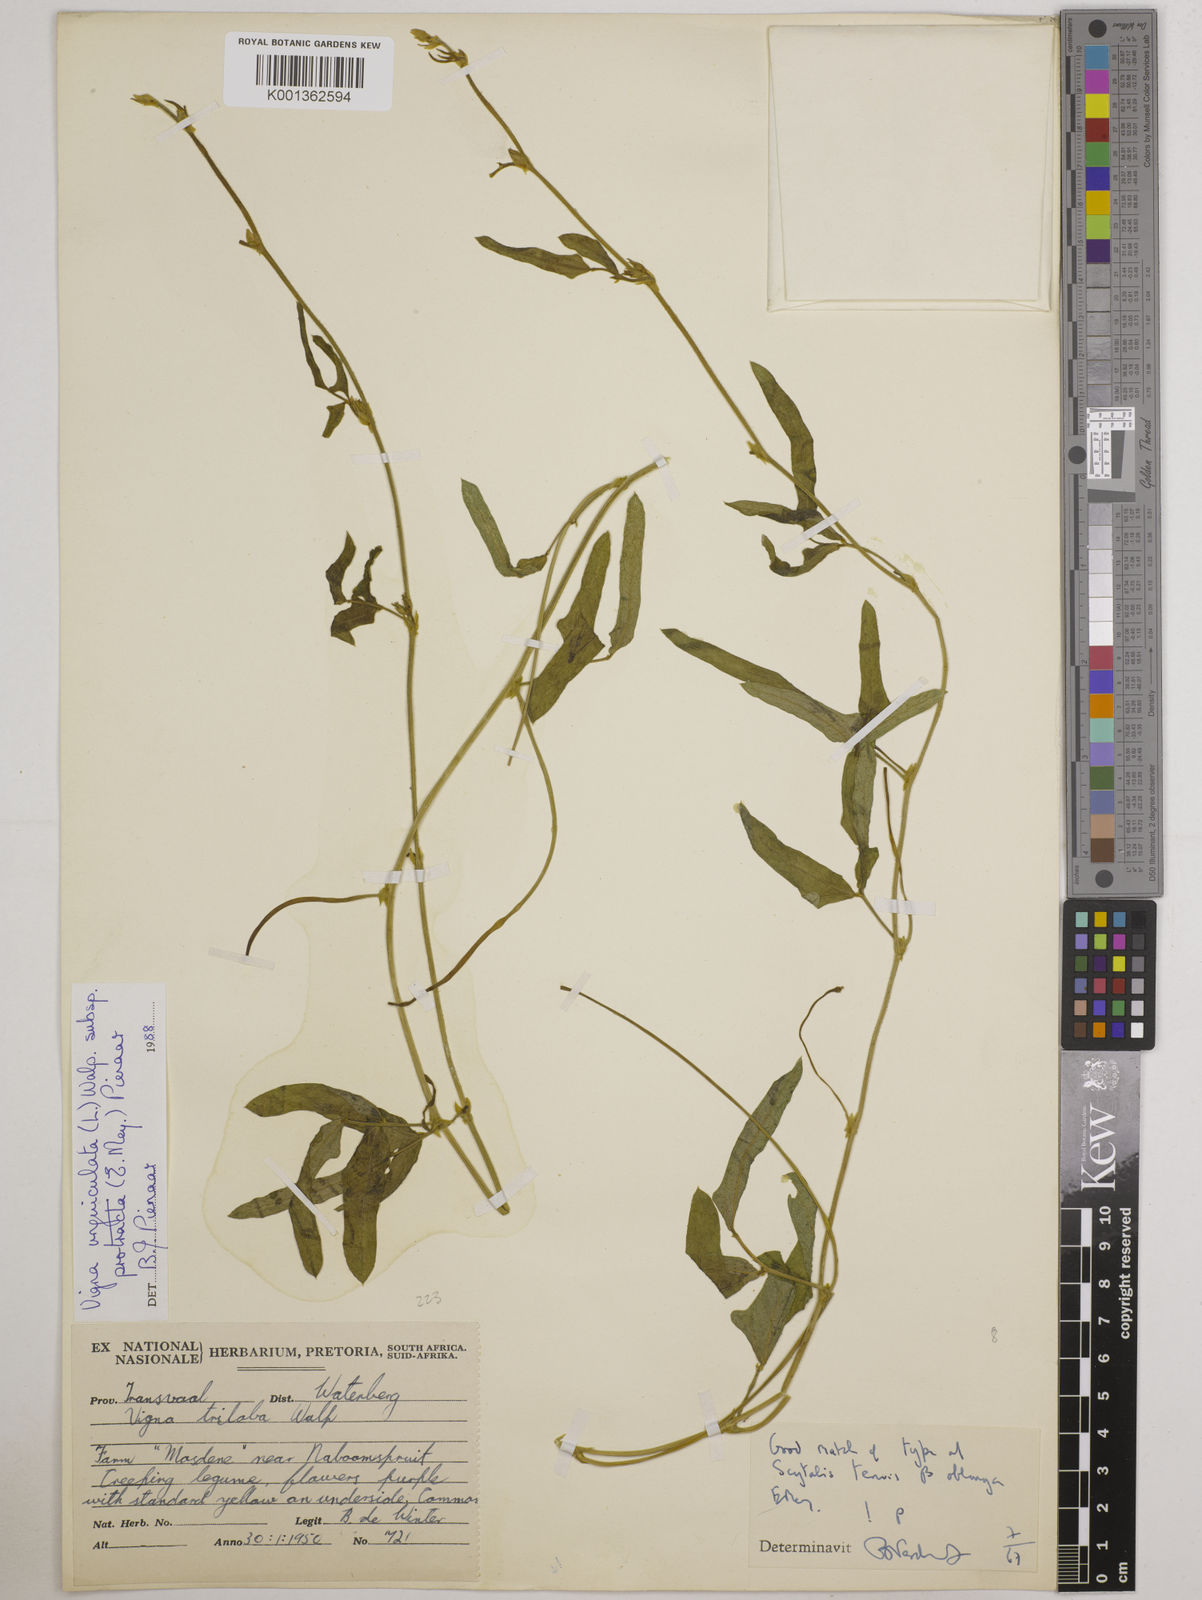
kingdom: Plantae
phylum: Tracheophyta
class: Magnoliopsida
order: Fabales
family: Fabaceae
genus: Vigna
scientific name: Vigna unguiculata
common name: Cowpea
